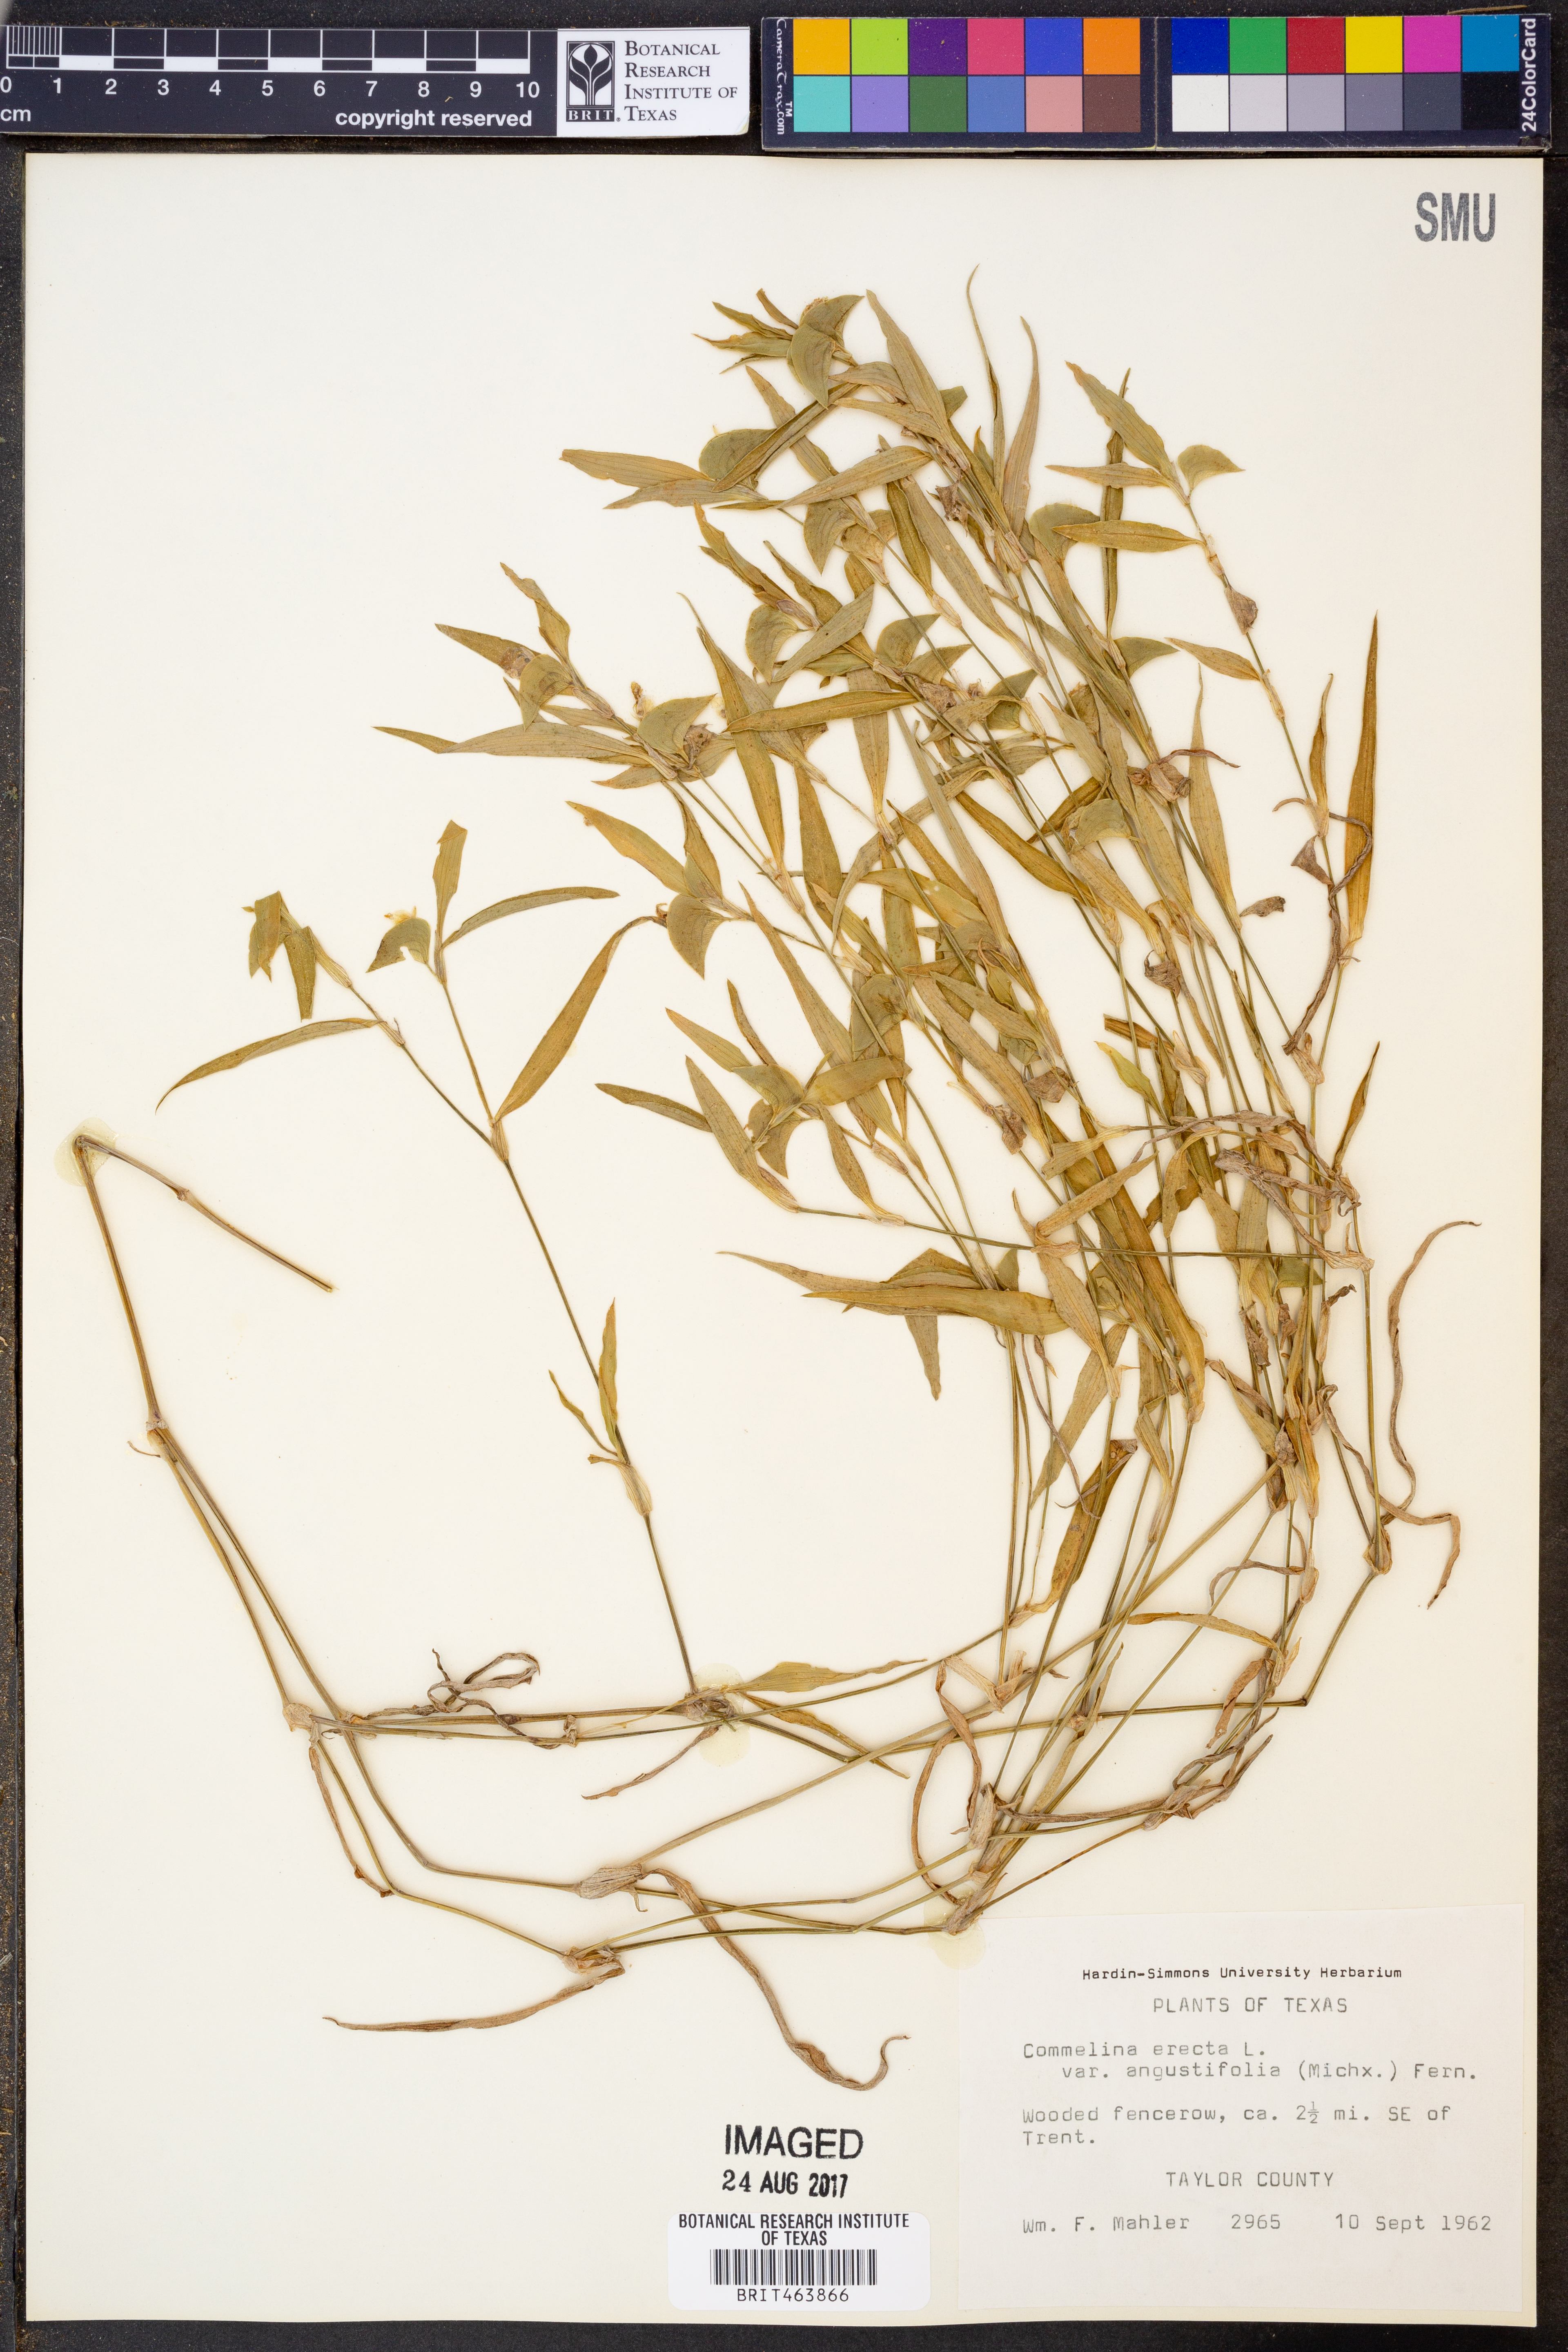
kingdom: Plantae
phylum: Tracheophyta
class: Liliopsida
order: Commelinales
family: Commelinaceae
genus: Commelina
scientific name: Commelina erecta
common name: Blousel blommetjie
